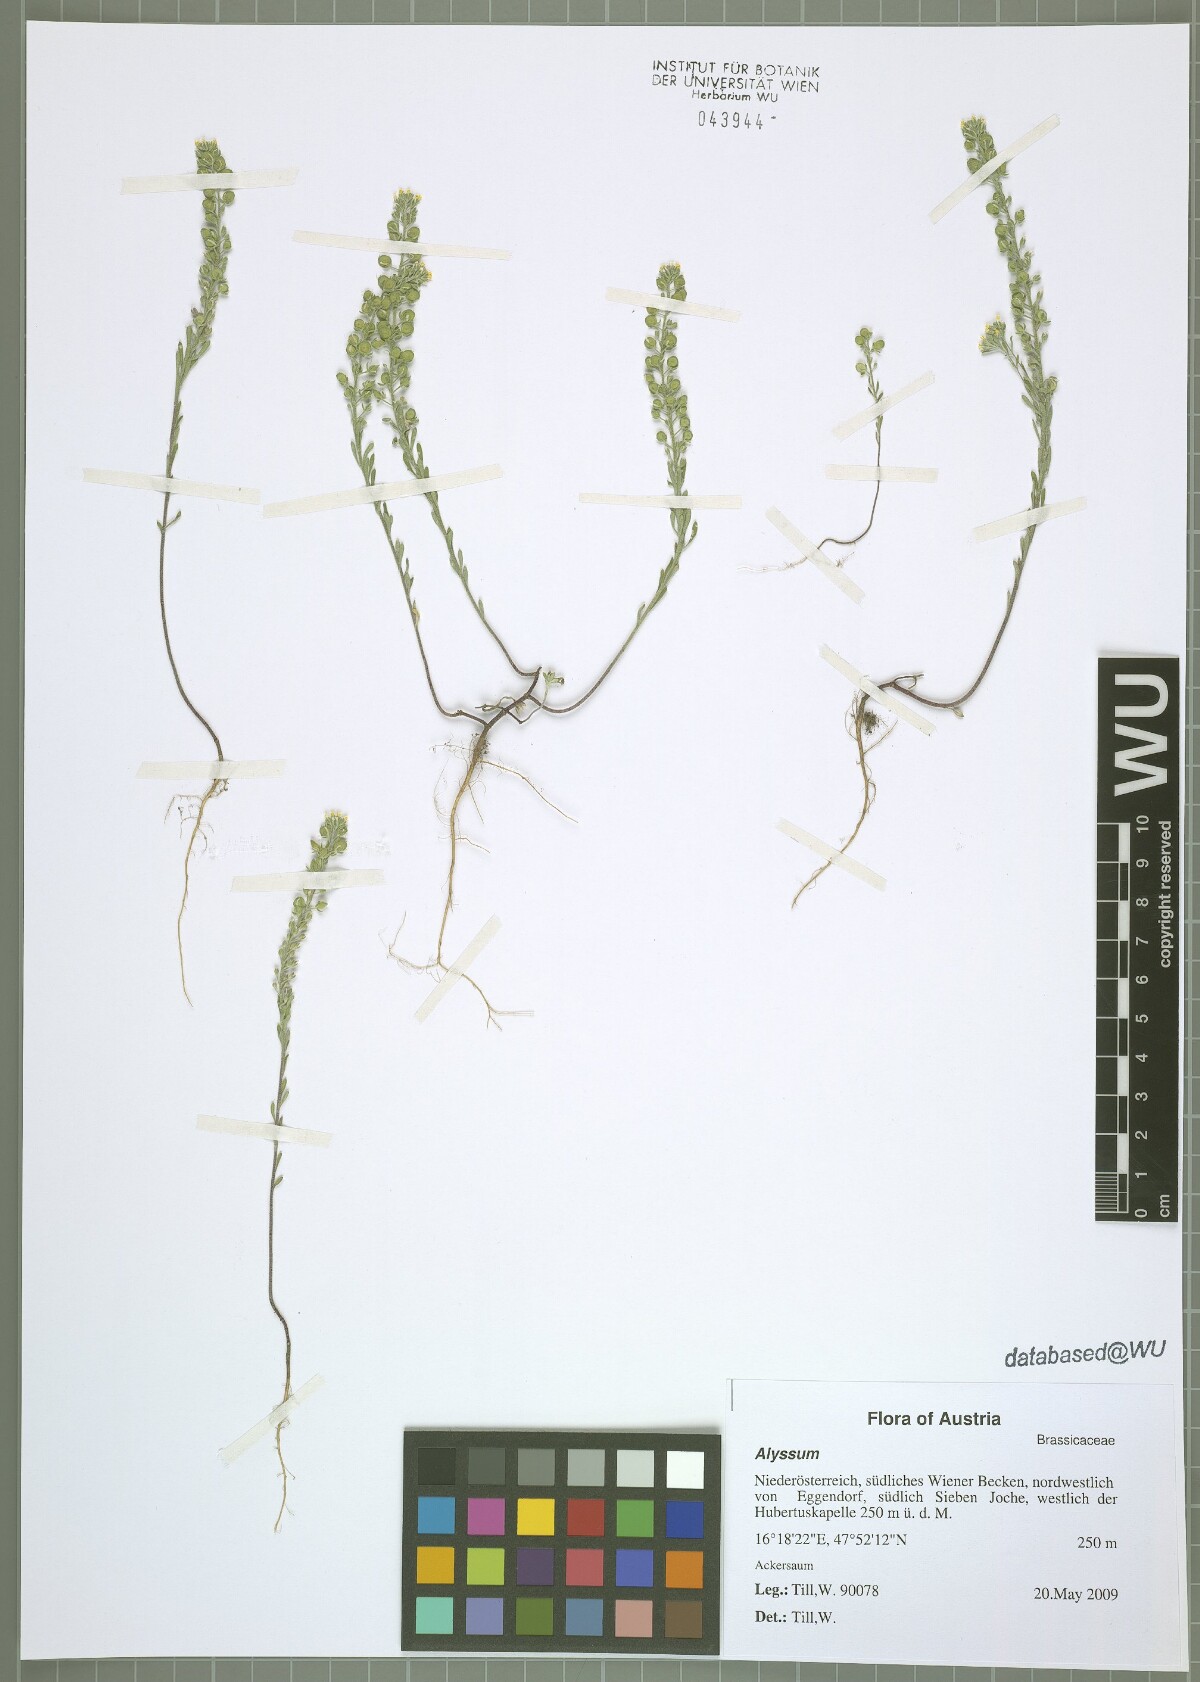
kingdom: Plantae
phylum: Tracheophyta
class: Magnoliopsida
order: Brassicales
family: Brassicaceae
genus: Alyssum
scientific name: Alyssum alyssoides
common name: Small alison
